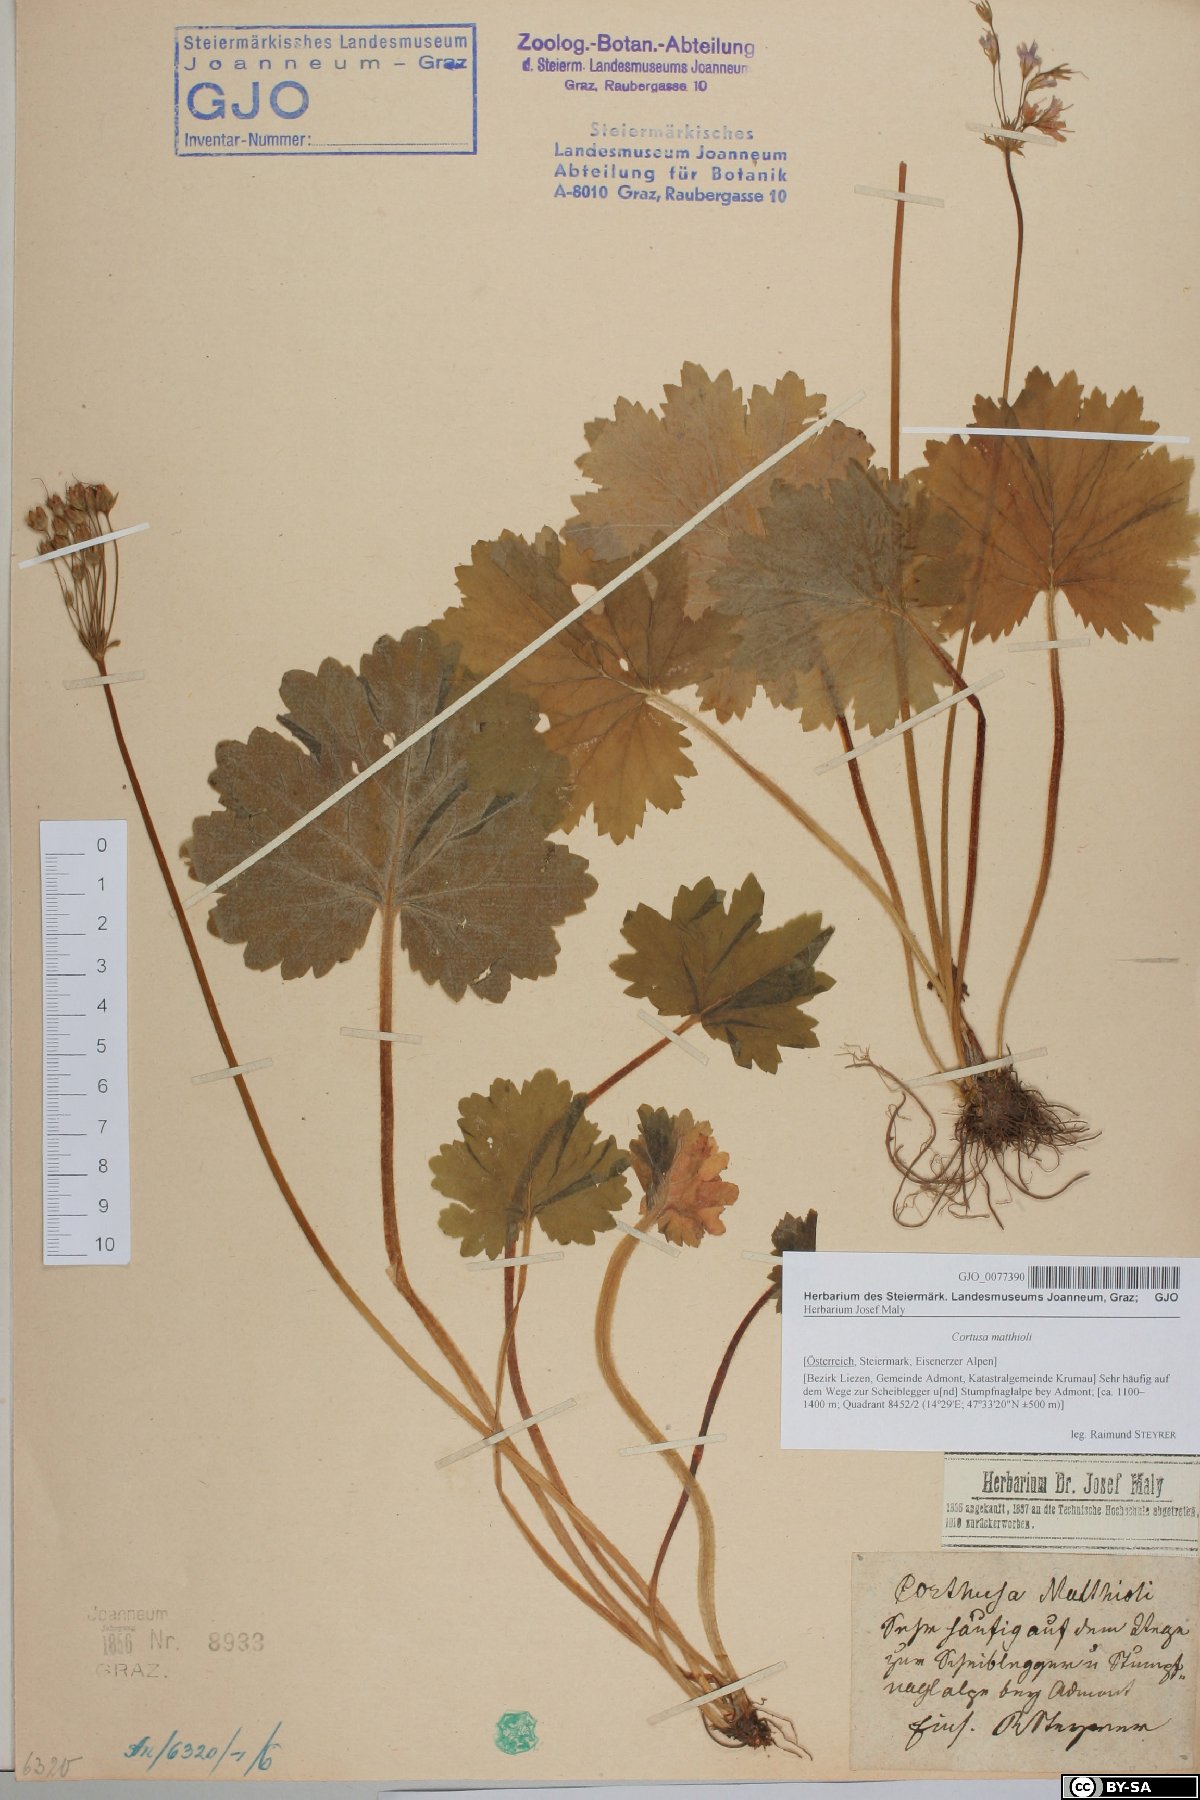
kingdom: Plantae
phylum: Tracheophyta
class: Magnoliopsida
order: Ericales
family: Primulaceae
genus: Primula
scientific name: Primula matthioli
